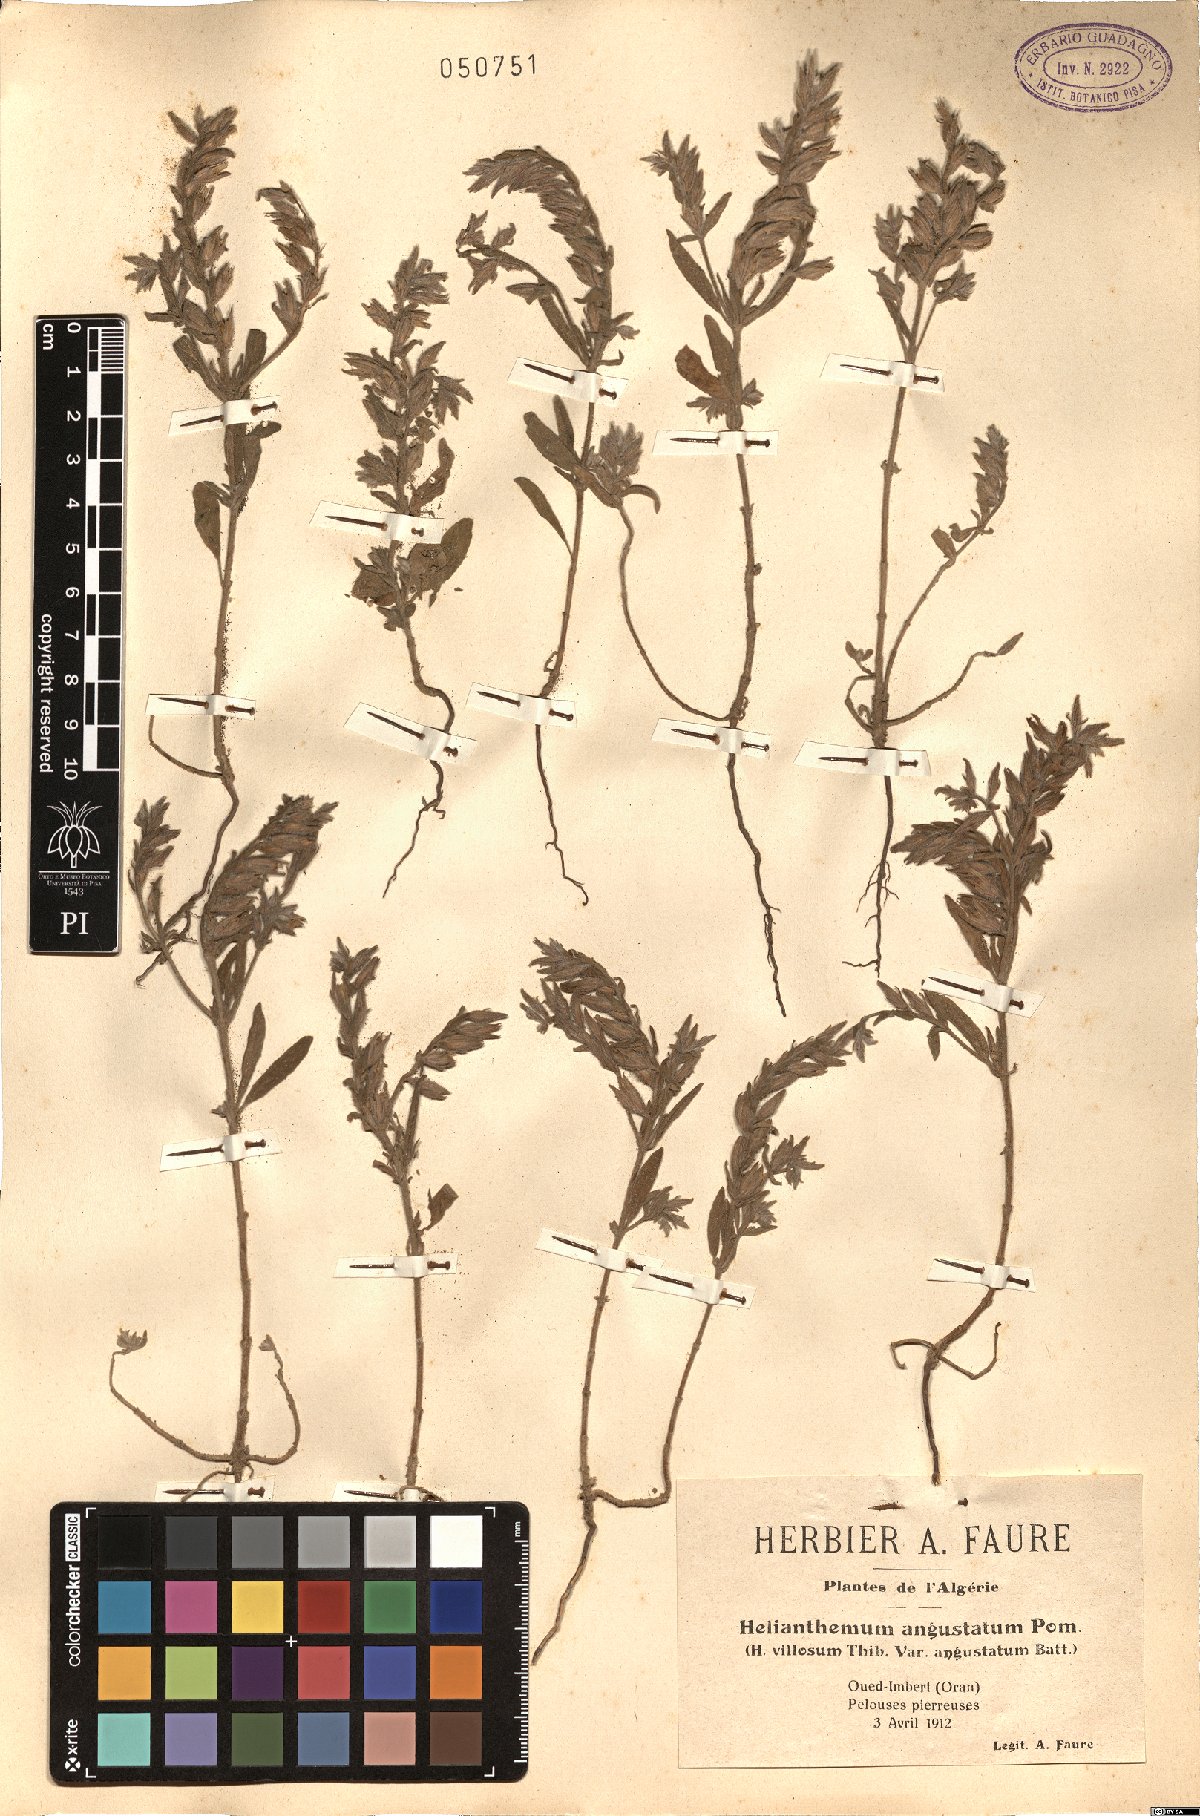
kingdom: Plantae
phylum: Tracheophyta
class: Magnoliopsida
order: Malvales
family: Cistaceae
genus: Helianthemum
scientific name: Helianthemum angustatum
